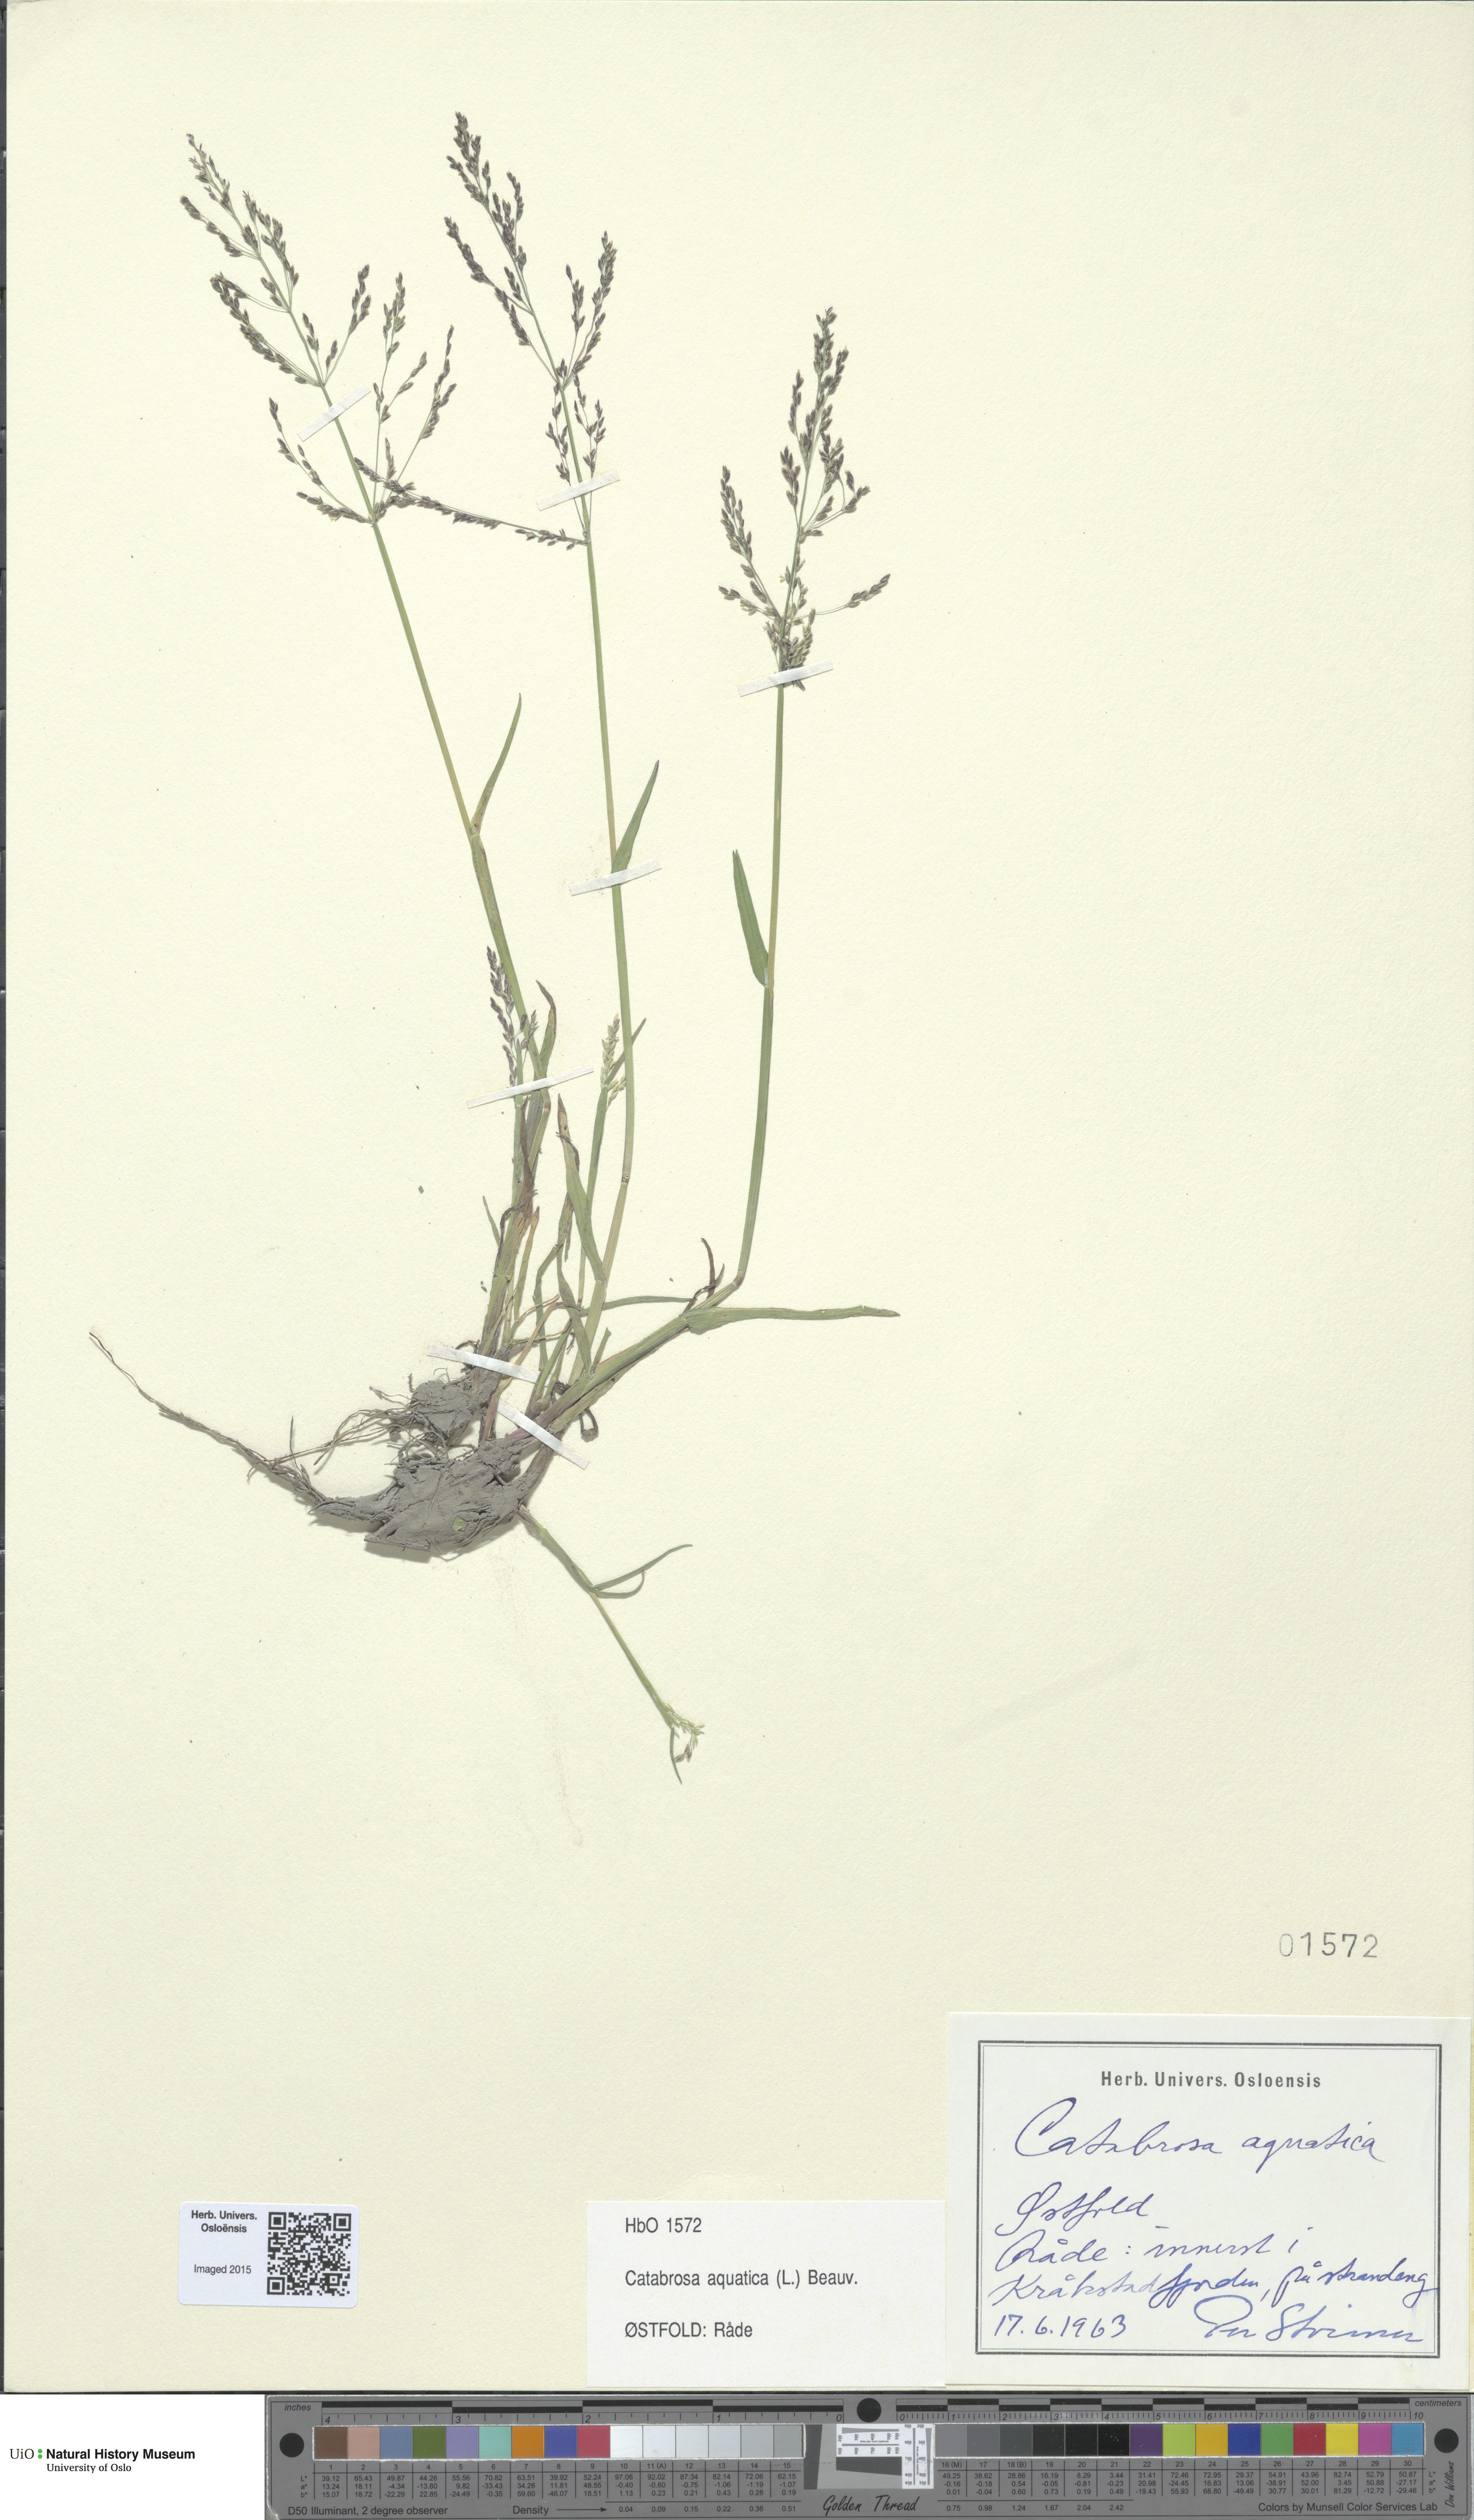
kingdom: Plantae
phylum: Tracheophyta
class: Liliopsida
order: Poales
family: Poaceae
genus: Catabrosa
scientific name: Catabrosa aquatica
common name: Whorl-grass
